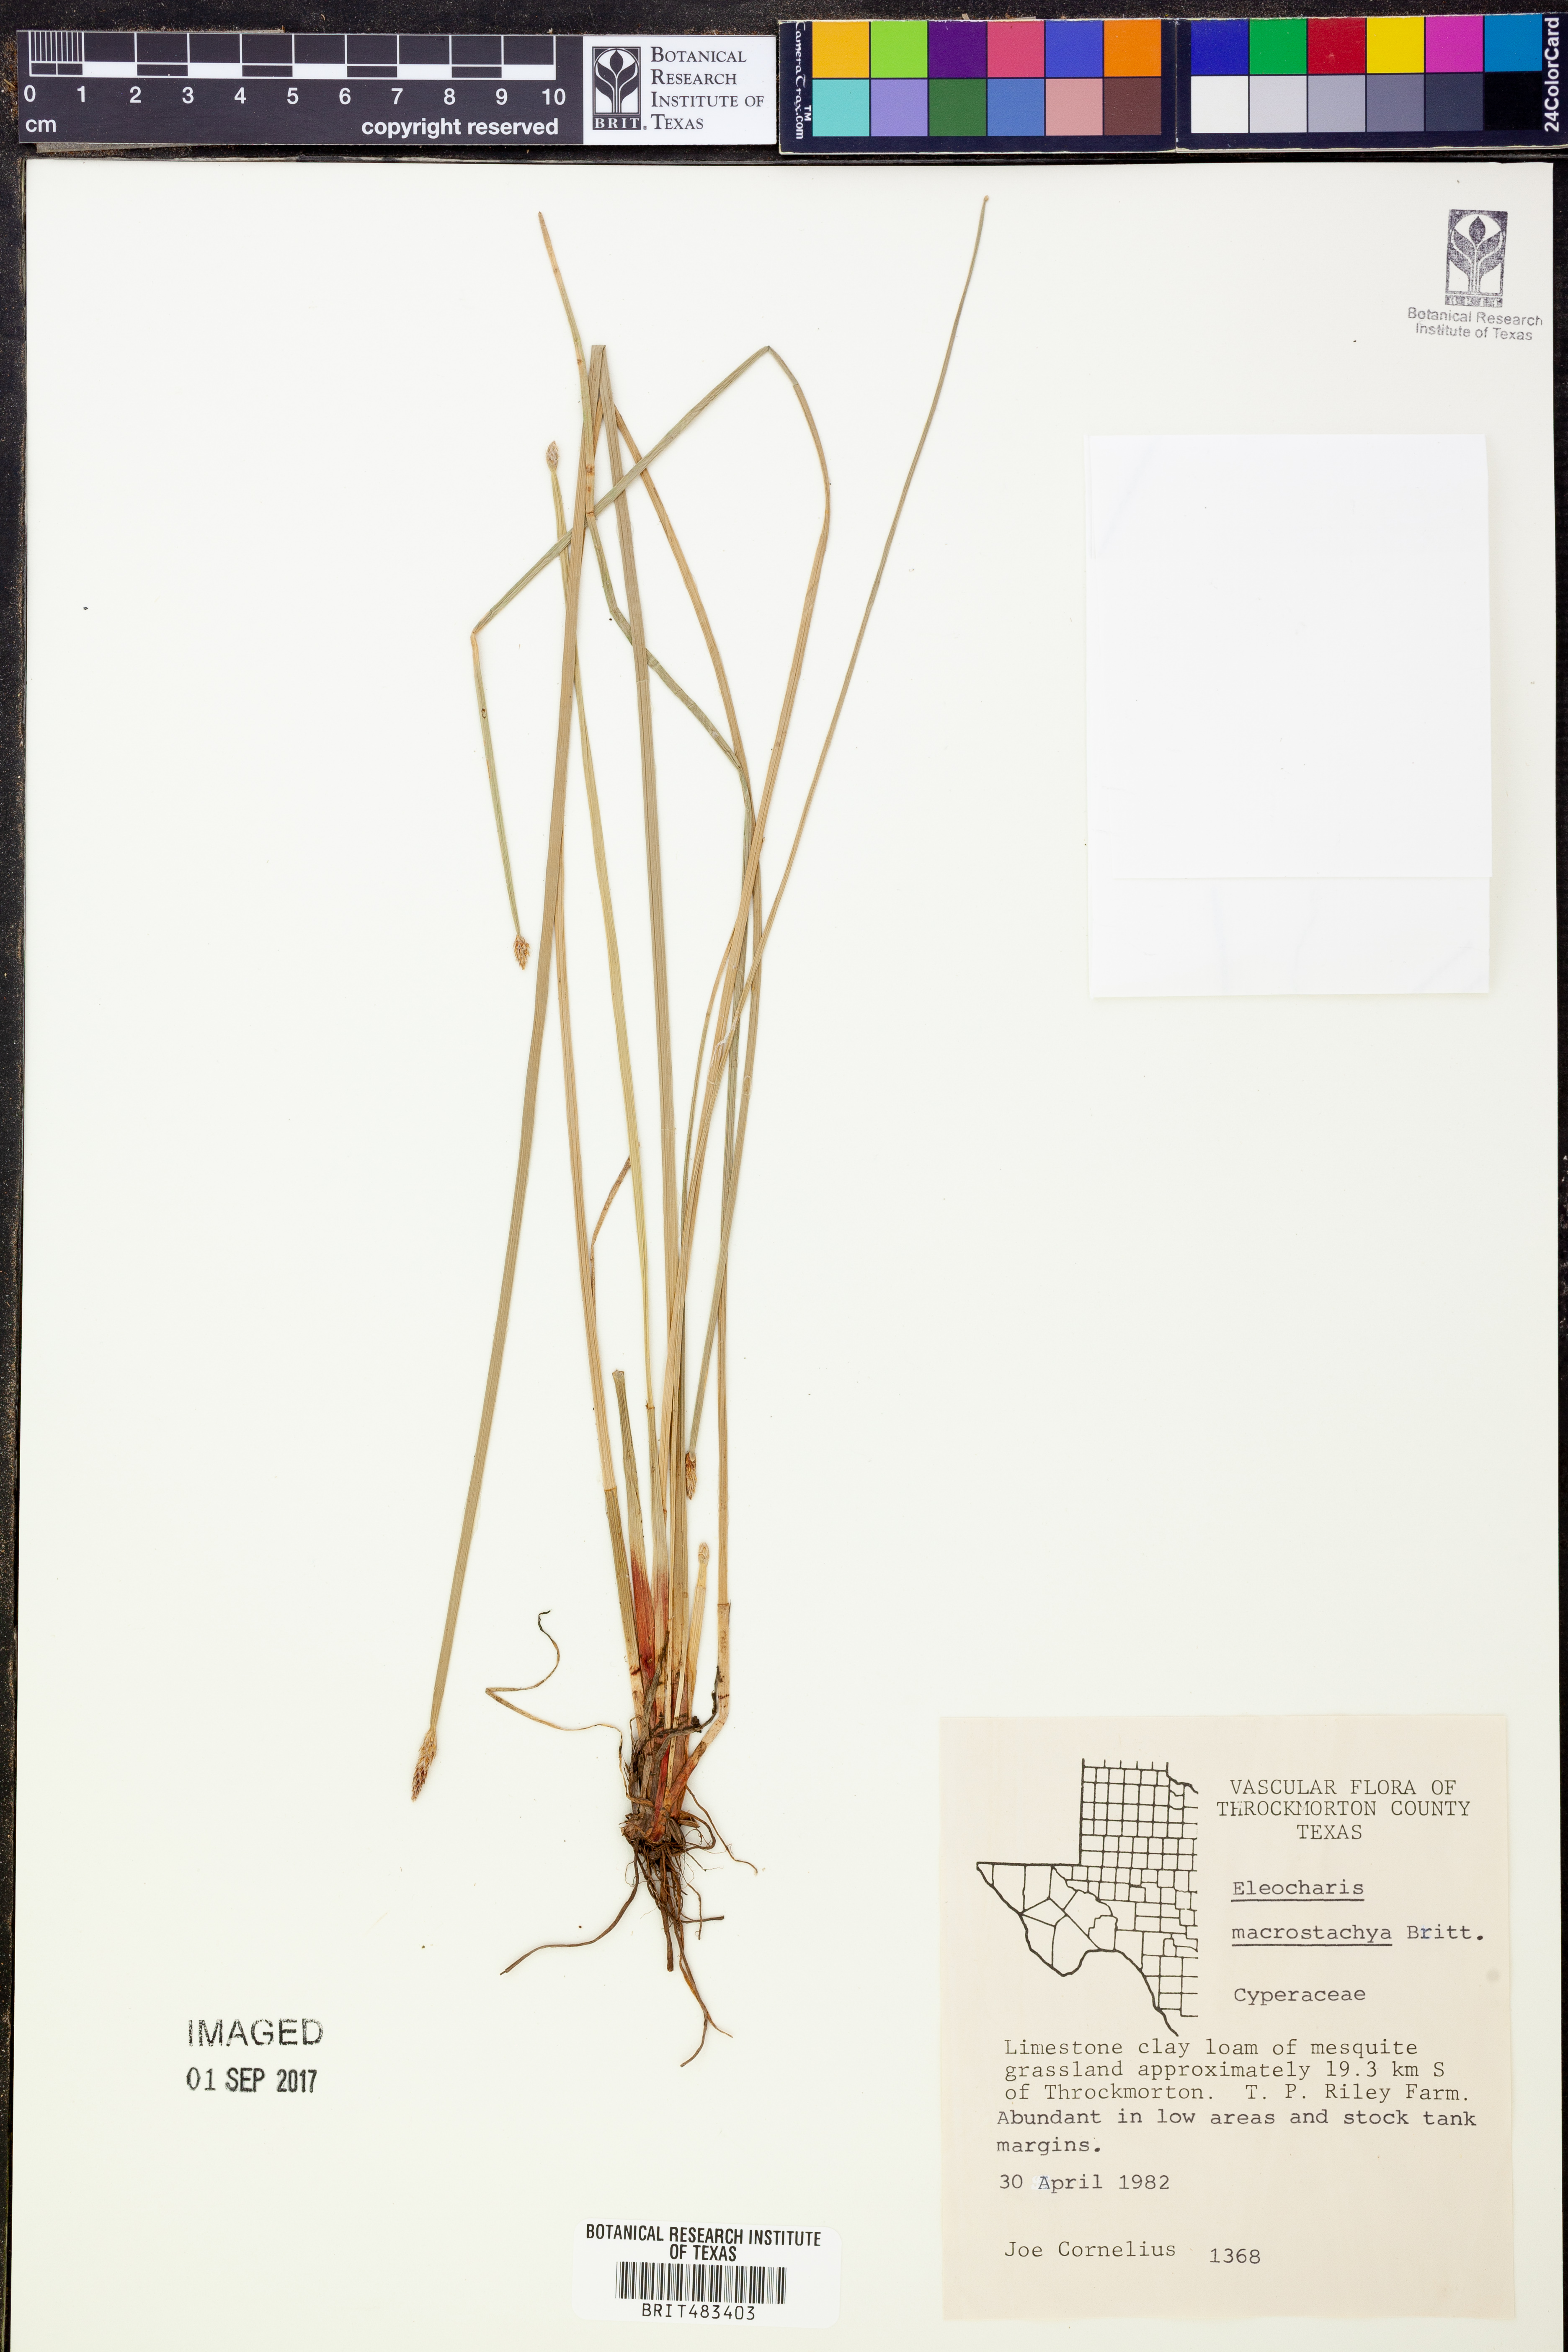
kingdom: Plantae
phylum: Tracheophyta
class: Liliopsida
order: Poales
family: Cyperaceae
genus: Eleocharis
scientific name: Eleocharis macrostachya
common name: Pale spikerush
